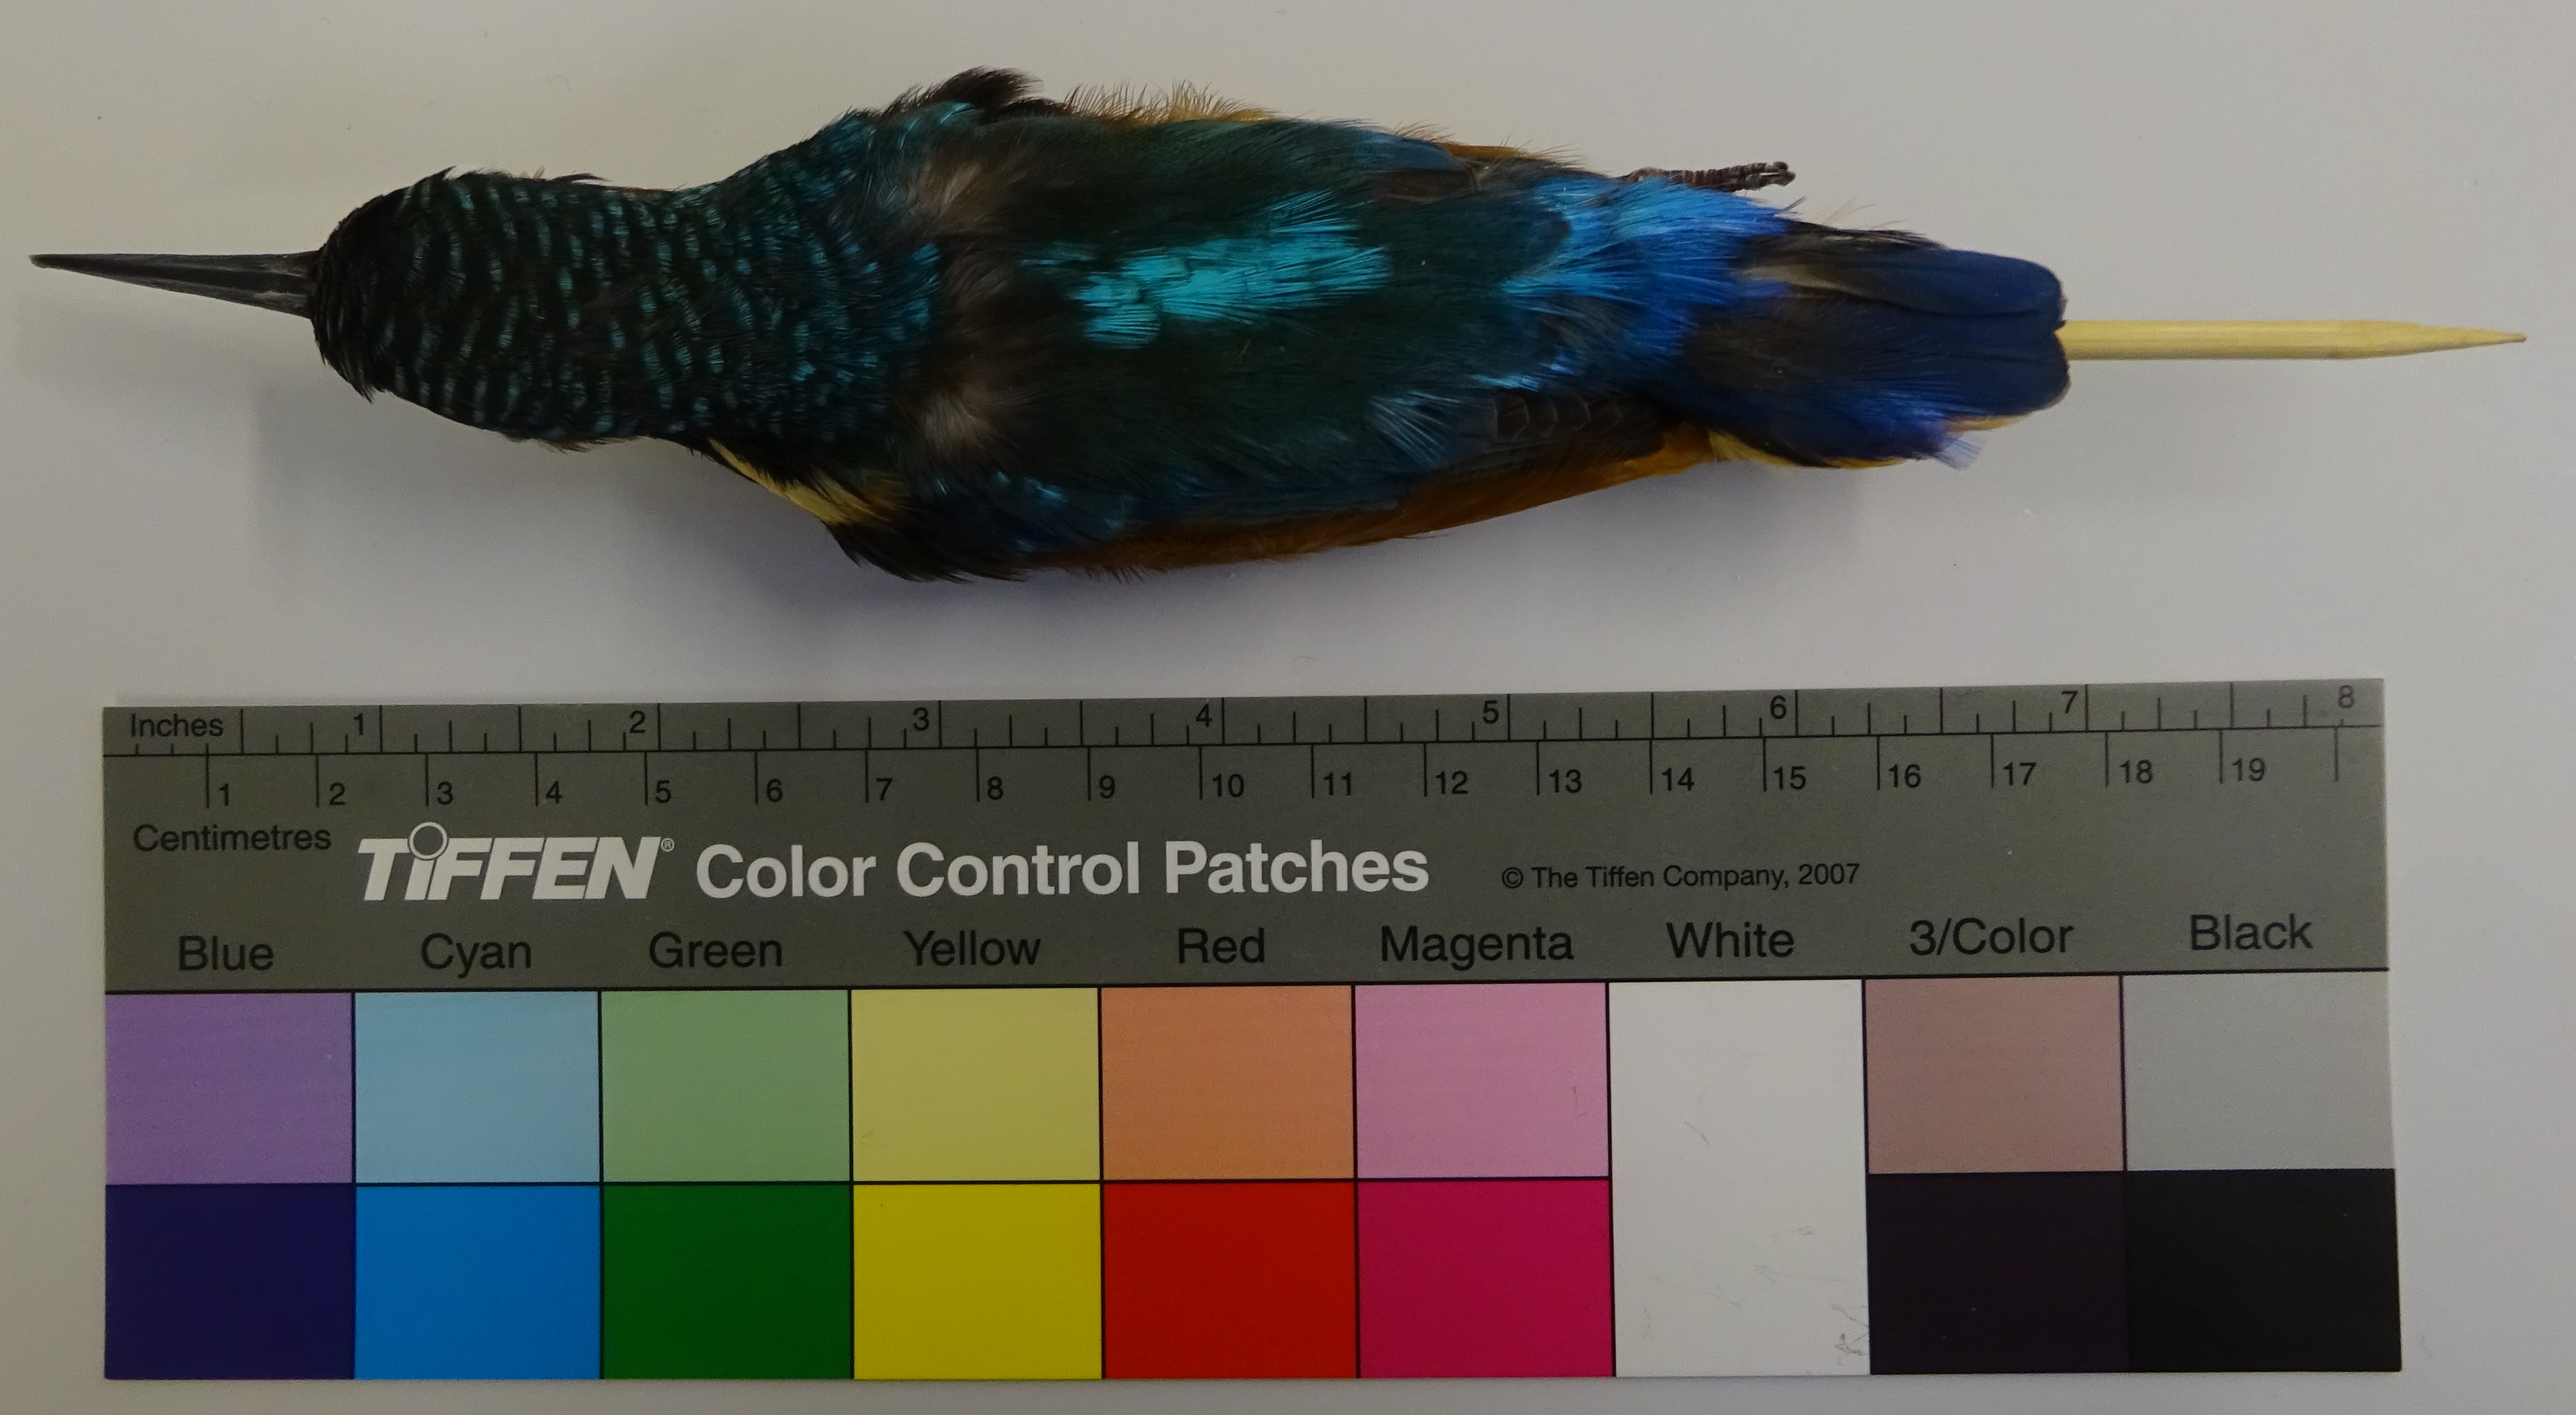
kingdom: Animalia
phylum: Chordata
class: Aves
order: Coraciiformes
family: Alcedinidae
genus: Alcedo
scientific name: Alcedo atthis
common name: Common kingfisher
